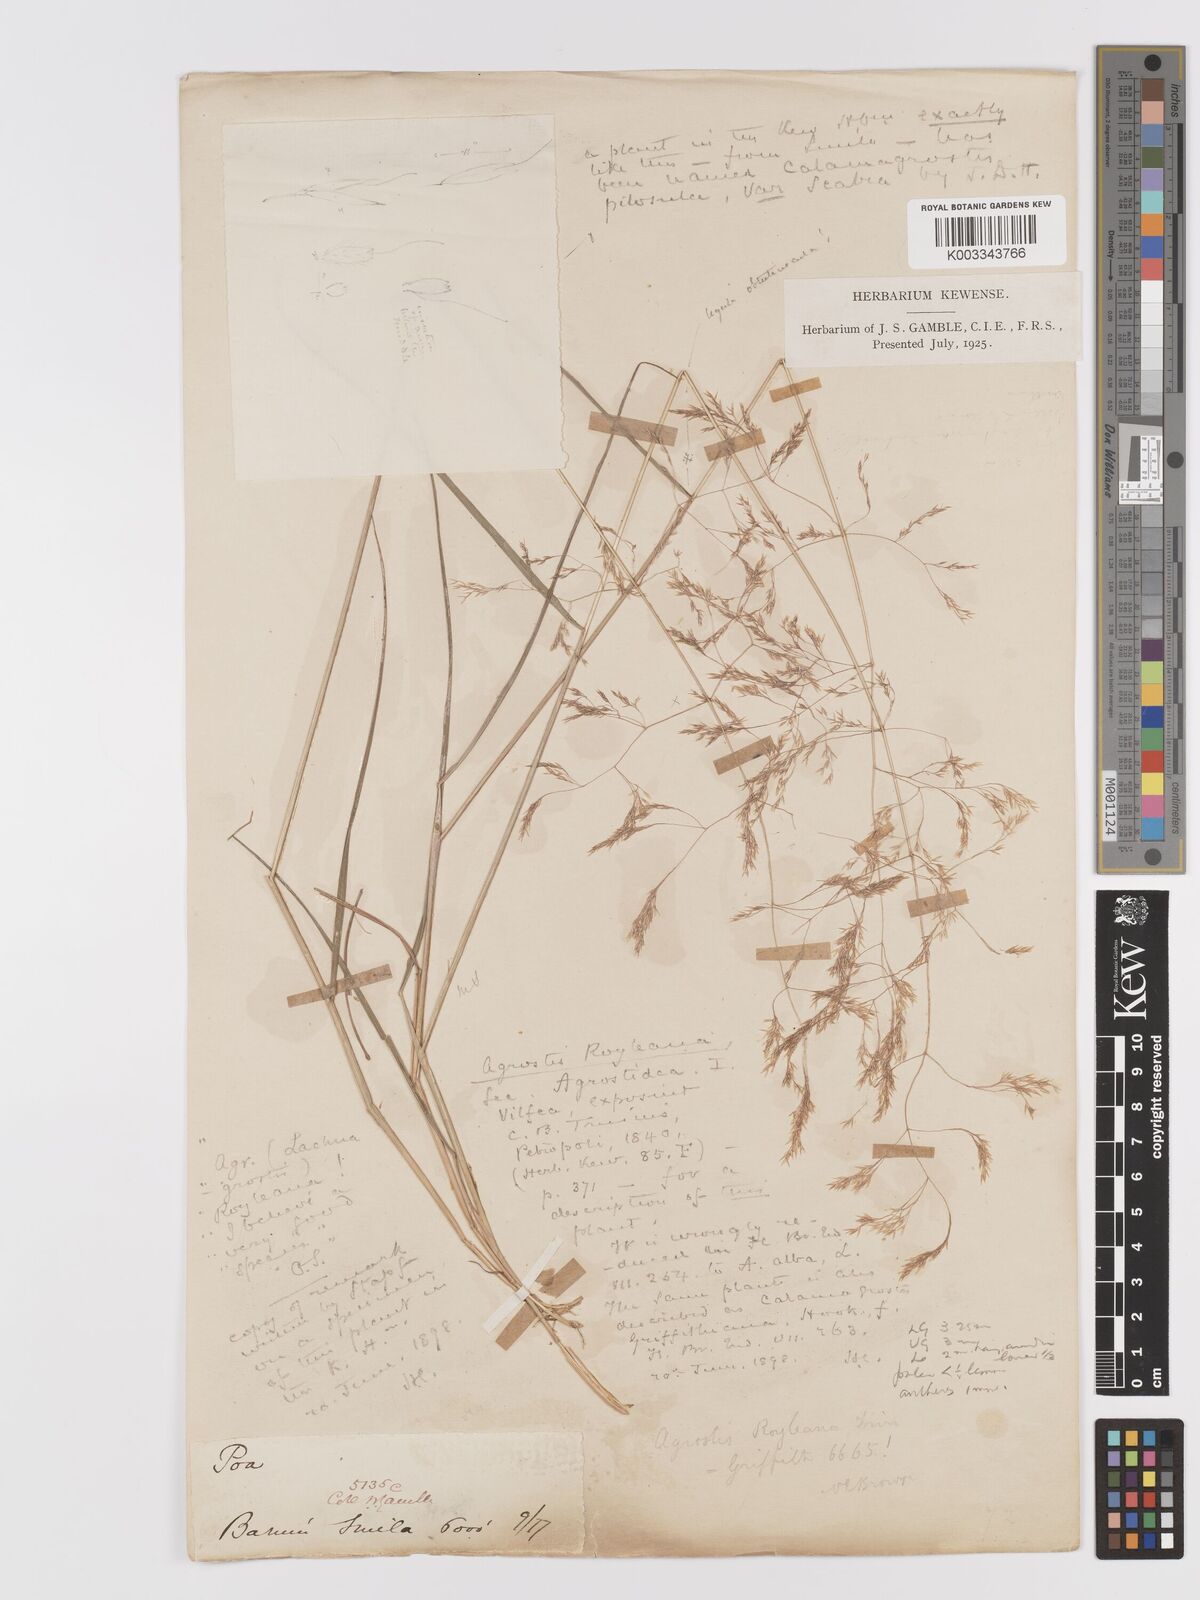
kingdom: Plantae
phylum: Tracheophyta
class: Liliopsida
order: Poales
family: Poaceae
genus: Agrostis
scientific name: Agrostis pilosula
